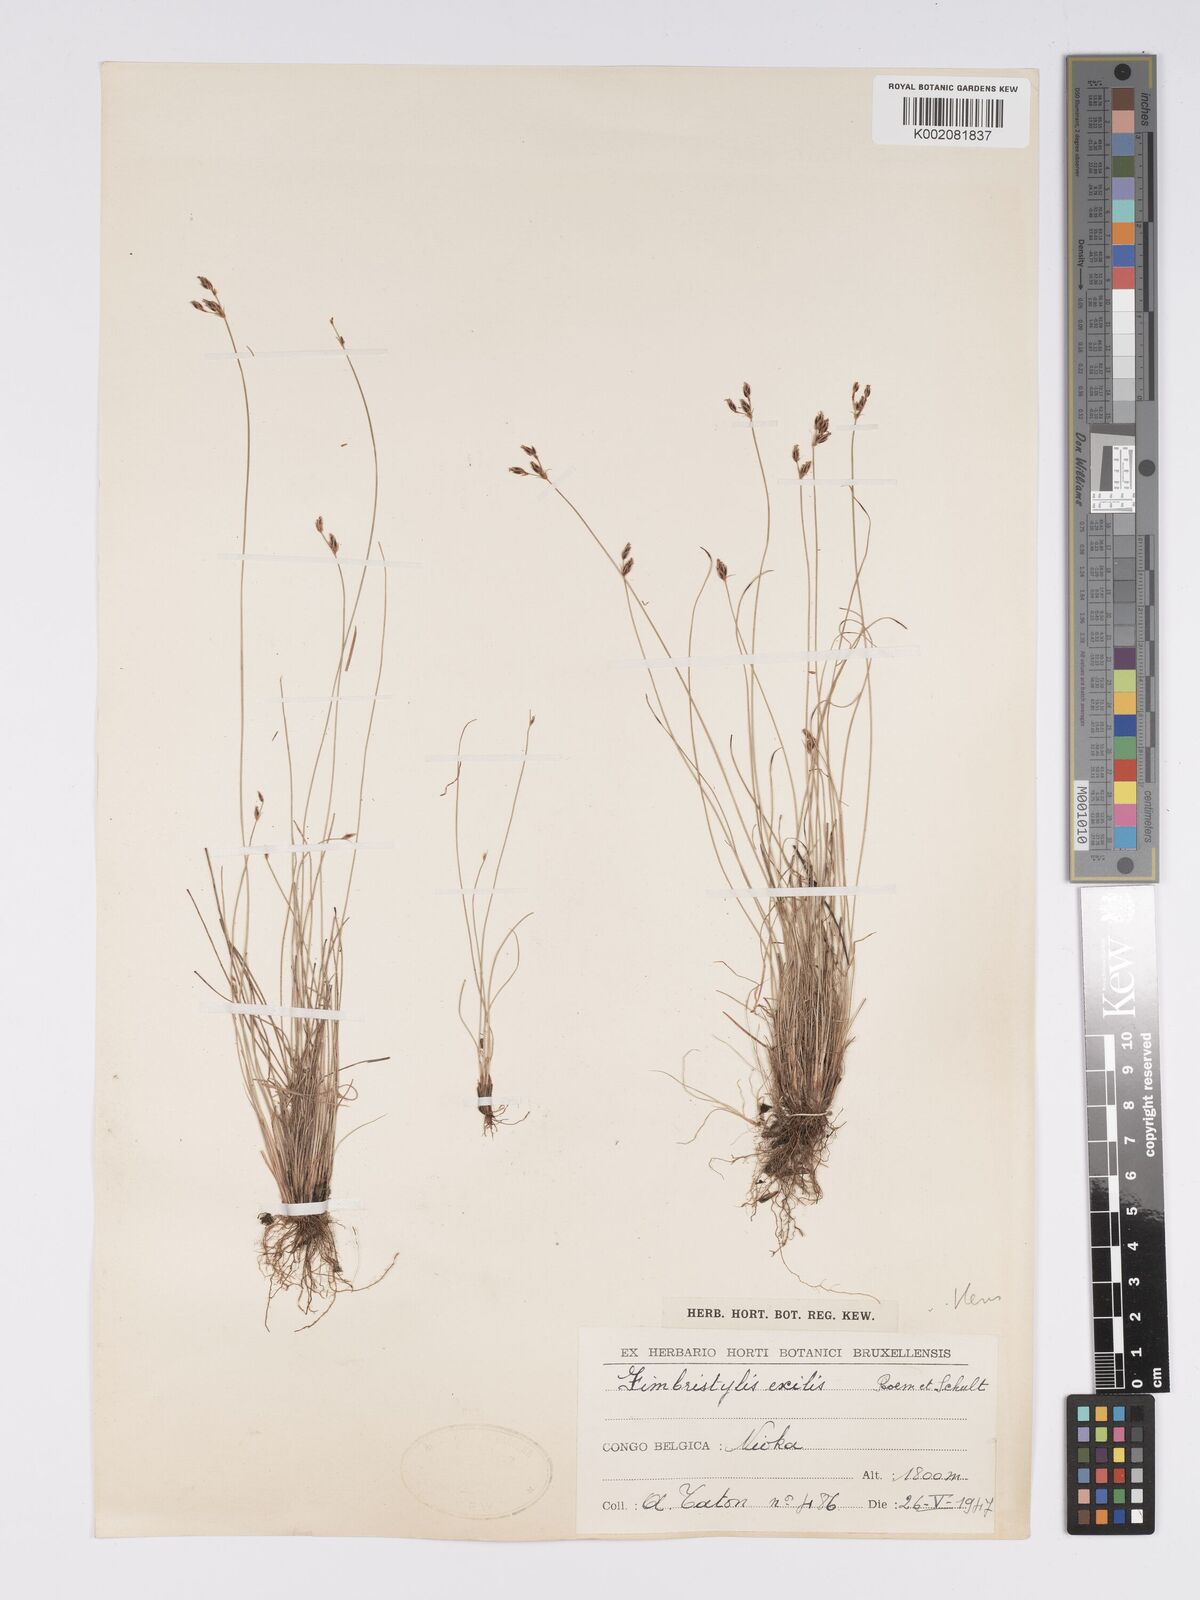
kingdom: Plantae
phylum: Tracheophyta
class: Liliopsida
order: Poales
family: Cyperaceae
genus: Bulbostylis
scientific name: Bulbostylis hispidula
